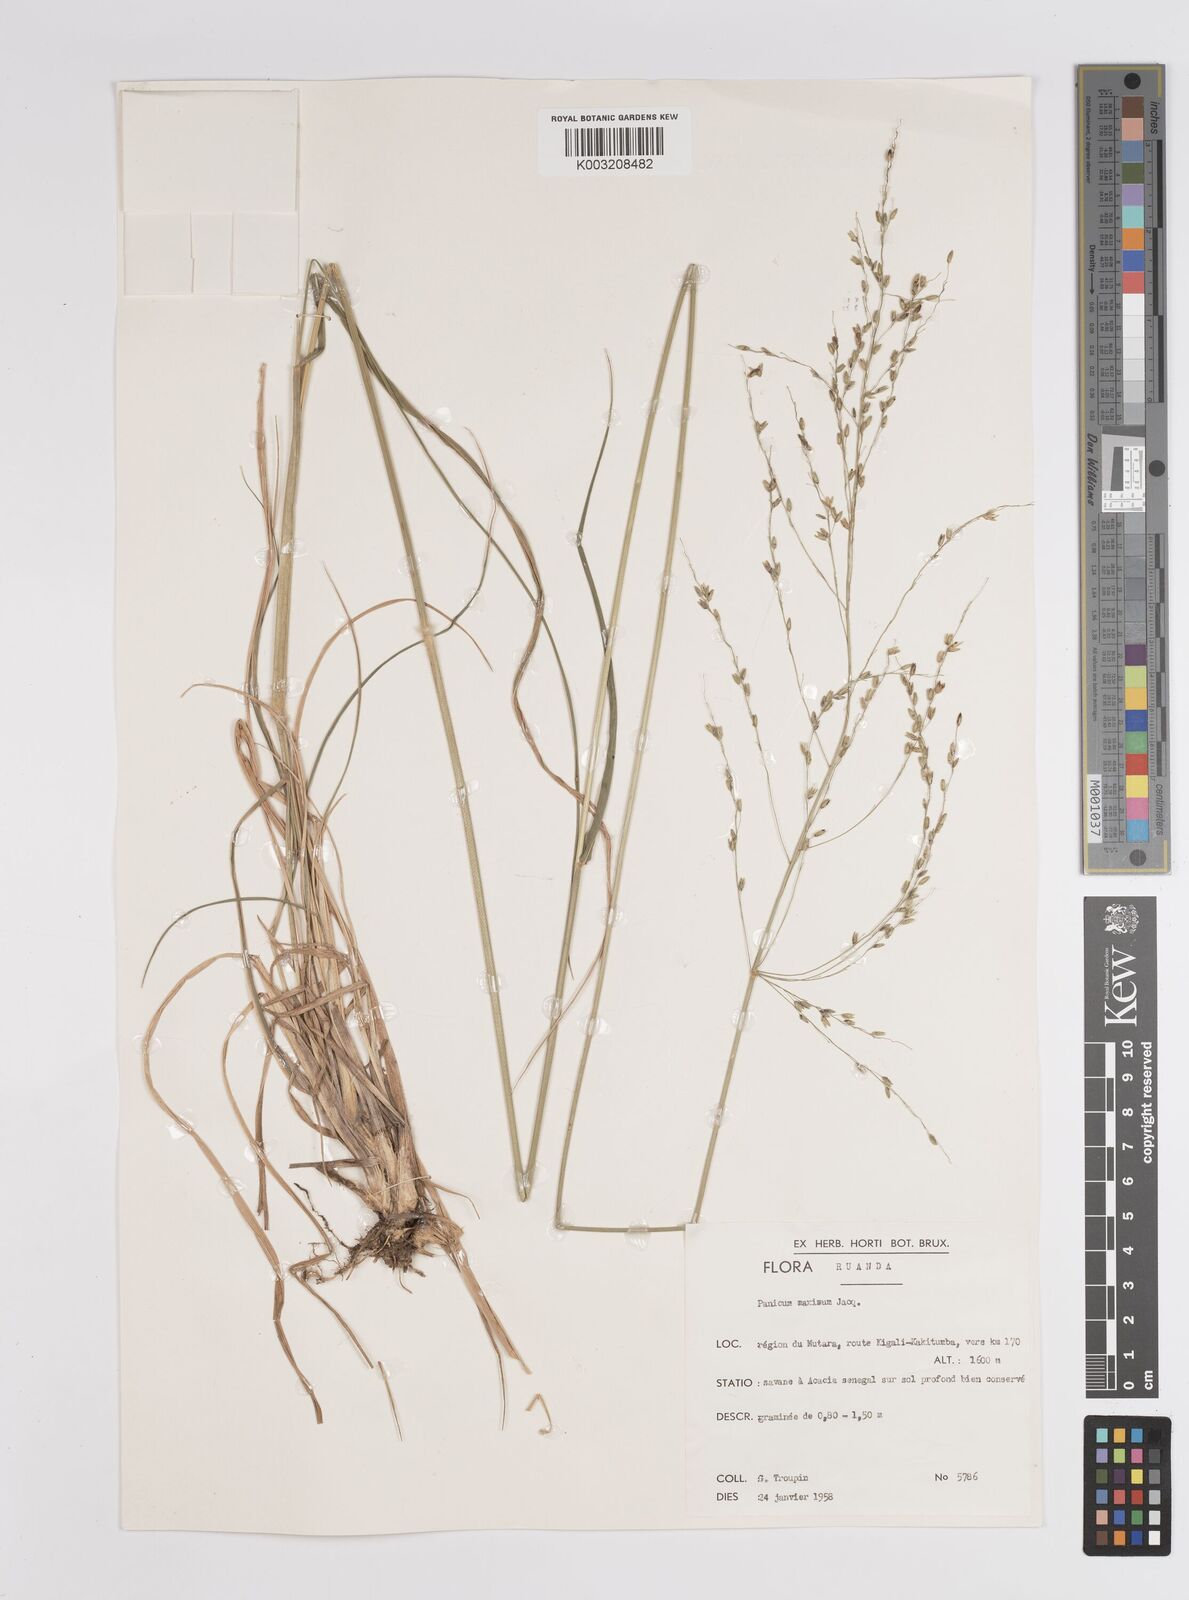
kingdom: Plantae
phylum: Tracheophyta
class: Liliopsida
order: Poales
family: Poaceae
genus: Megathyrsus
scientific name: Megathyrsus maximus
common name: Guineagrass
